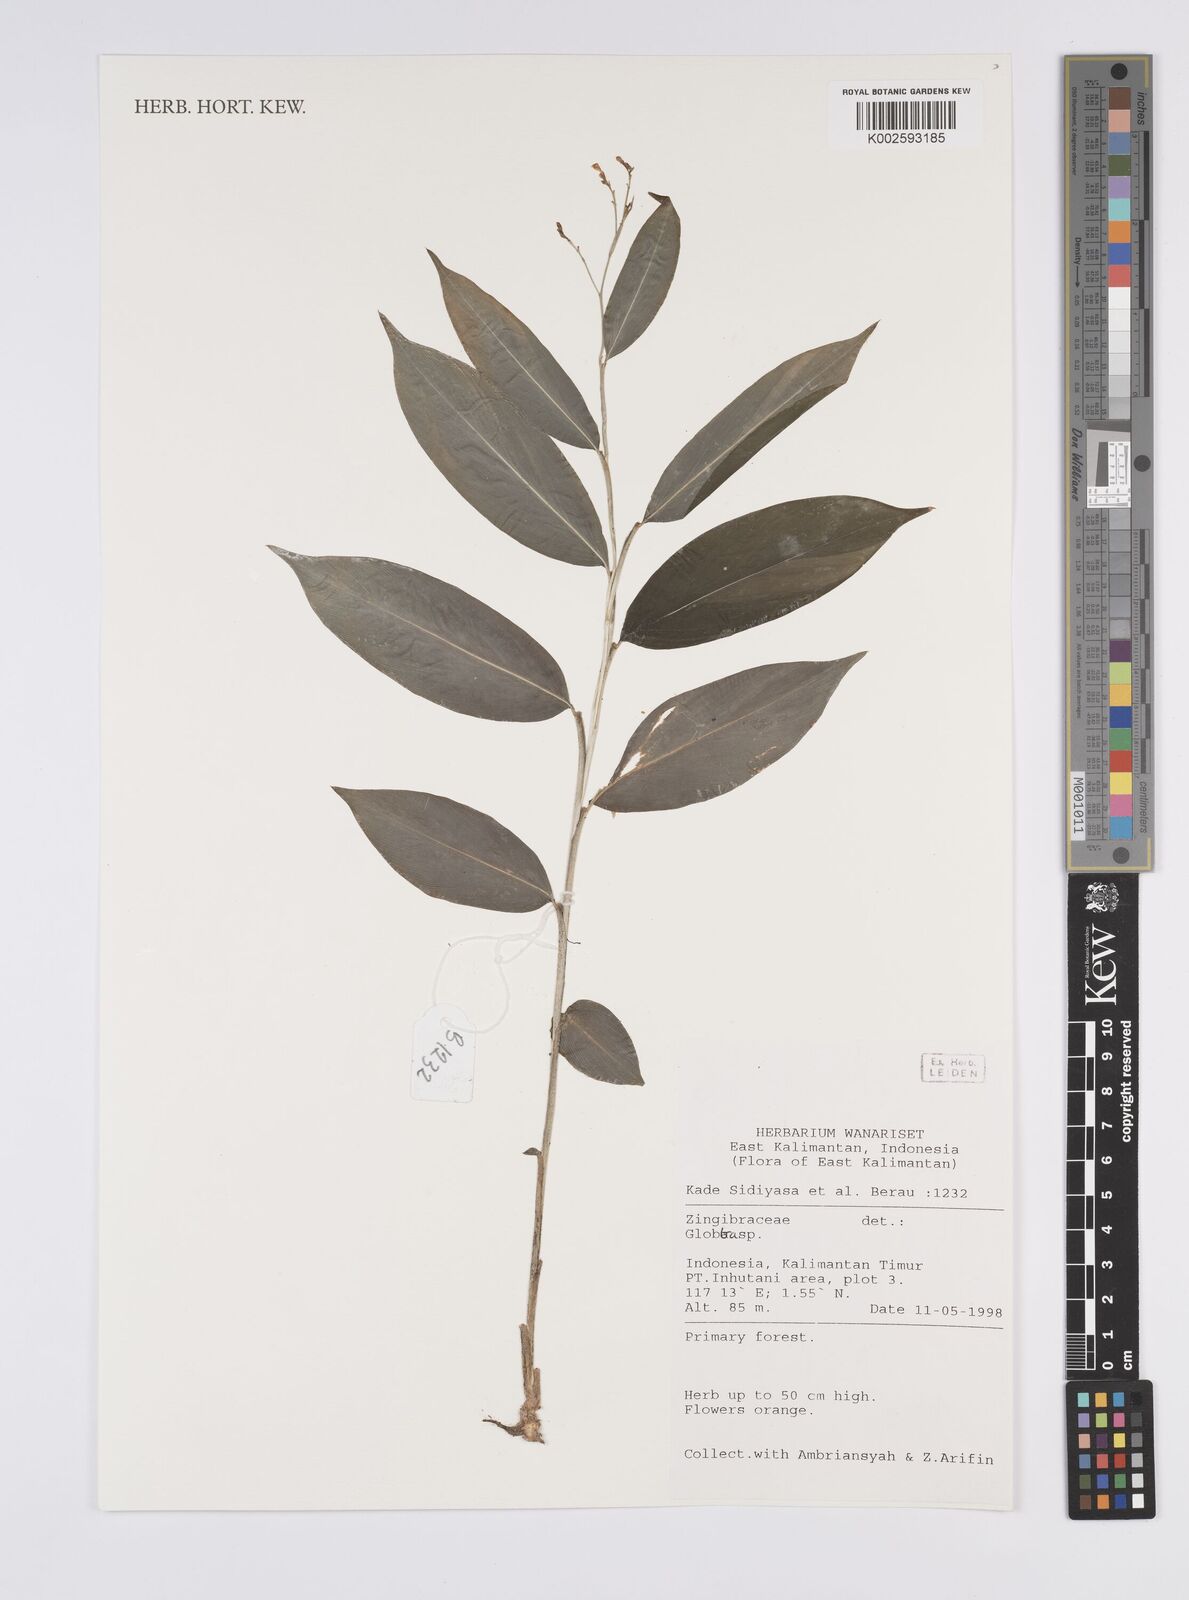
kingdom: Plantae
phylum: Tracheophyta
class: Liliopsida
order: Zingiberales
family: Zingiberaceae
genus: Globba
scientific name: Globba
